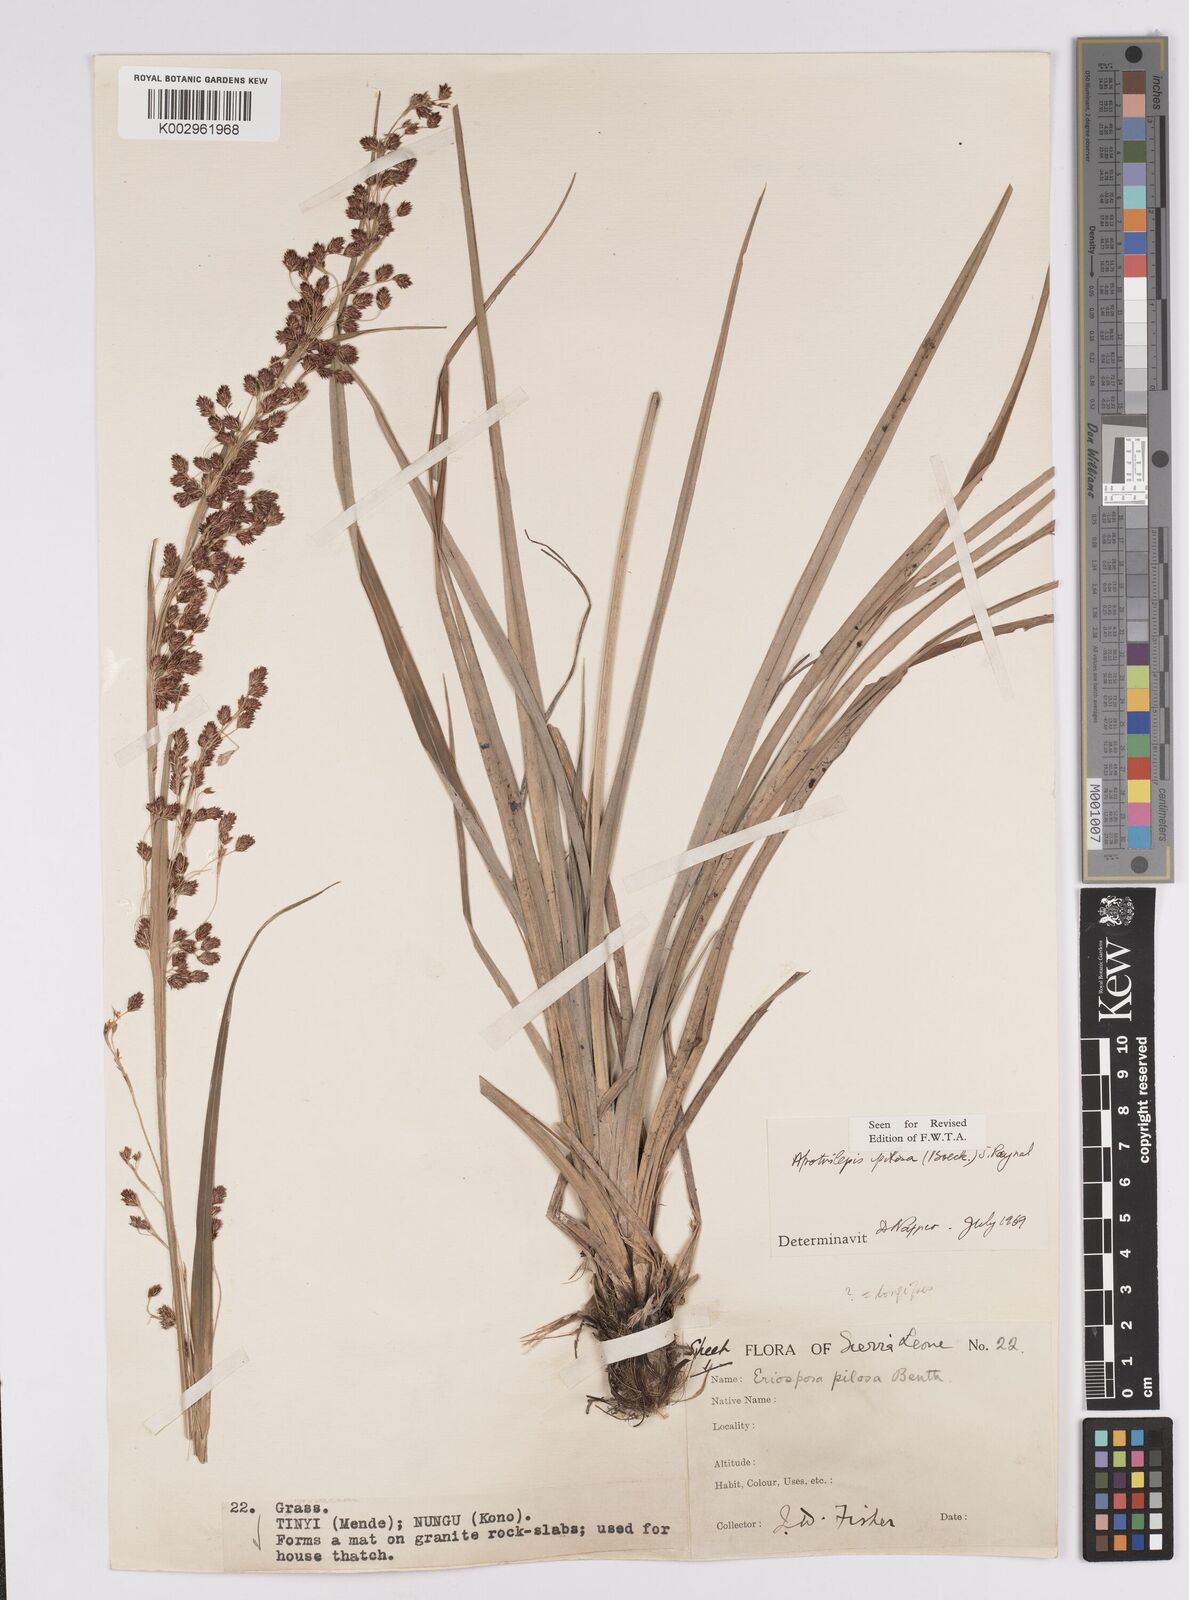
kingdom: Plantae
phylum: Tracheophyta
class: Liliopsida
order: Poales
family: Cyperaceae
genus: Afrotrilepis
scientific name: Afrotrilepis pilosa
